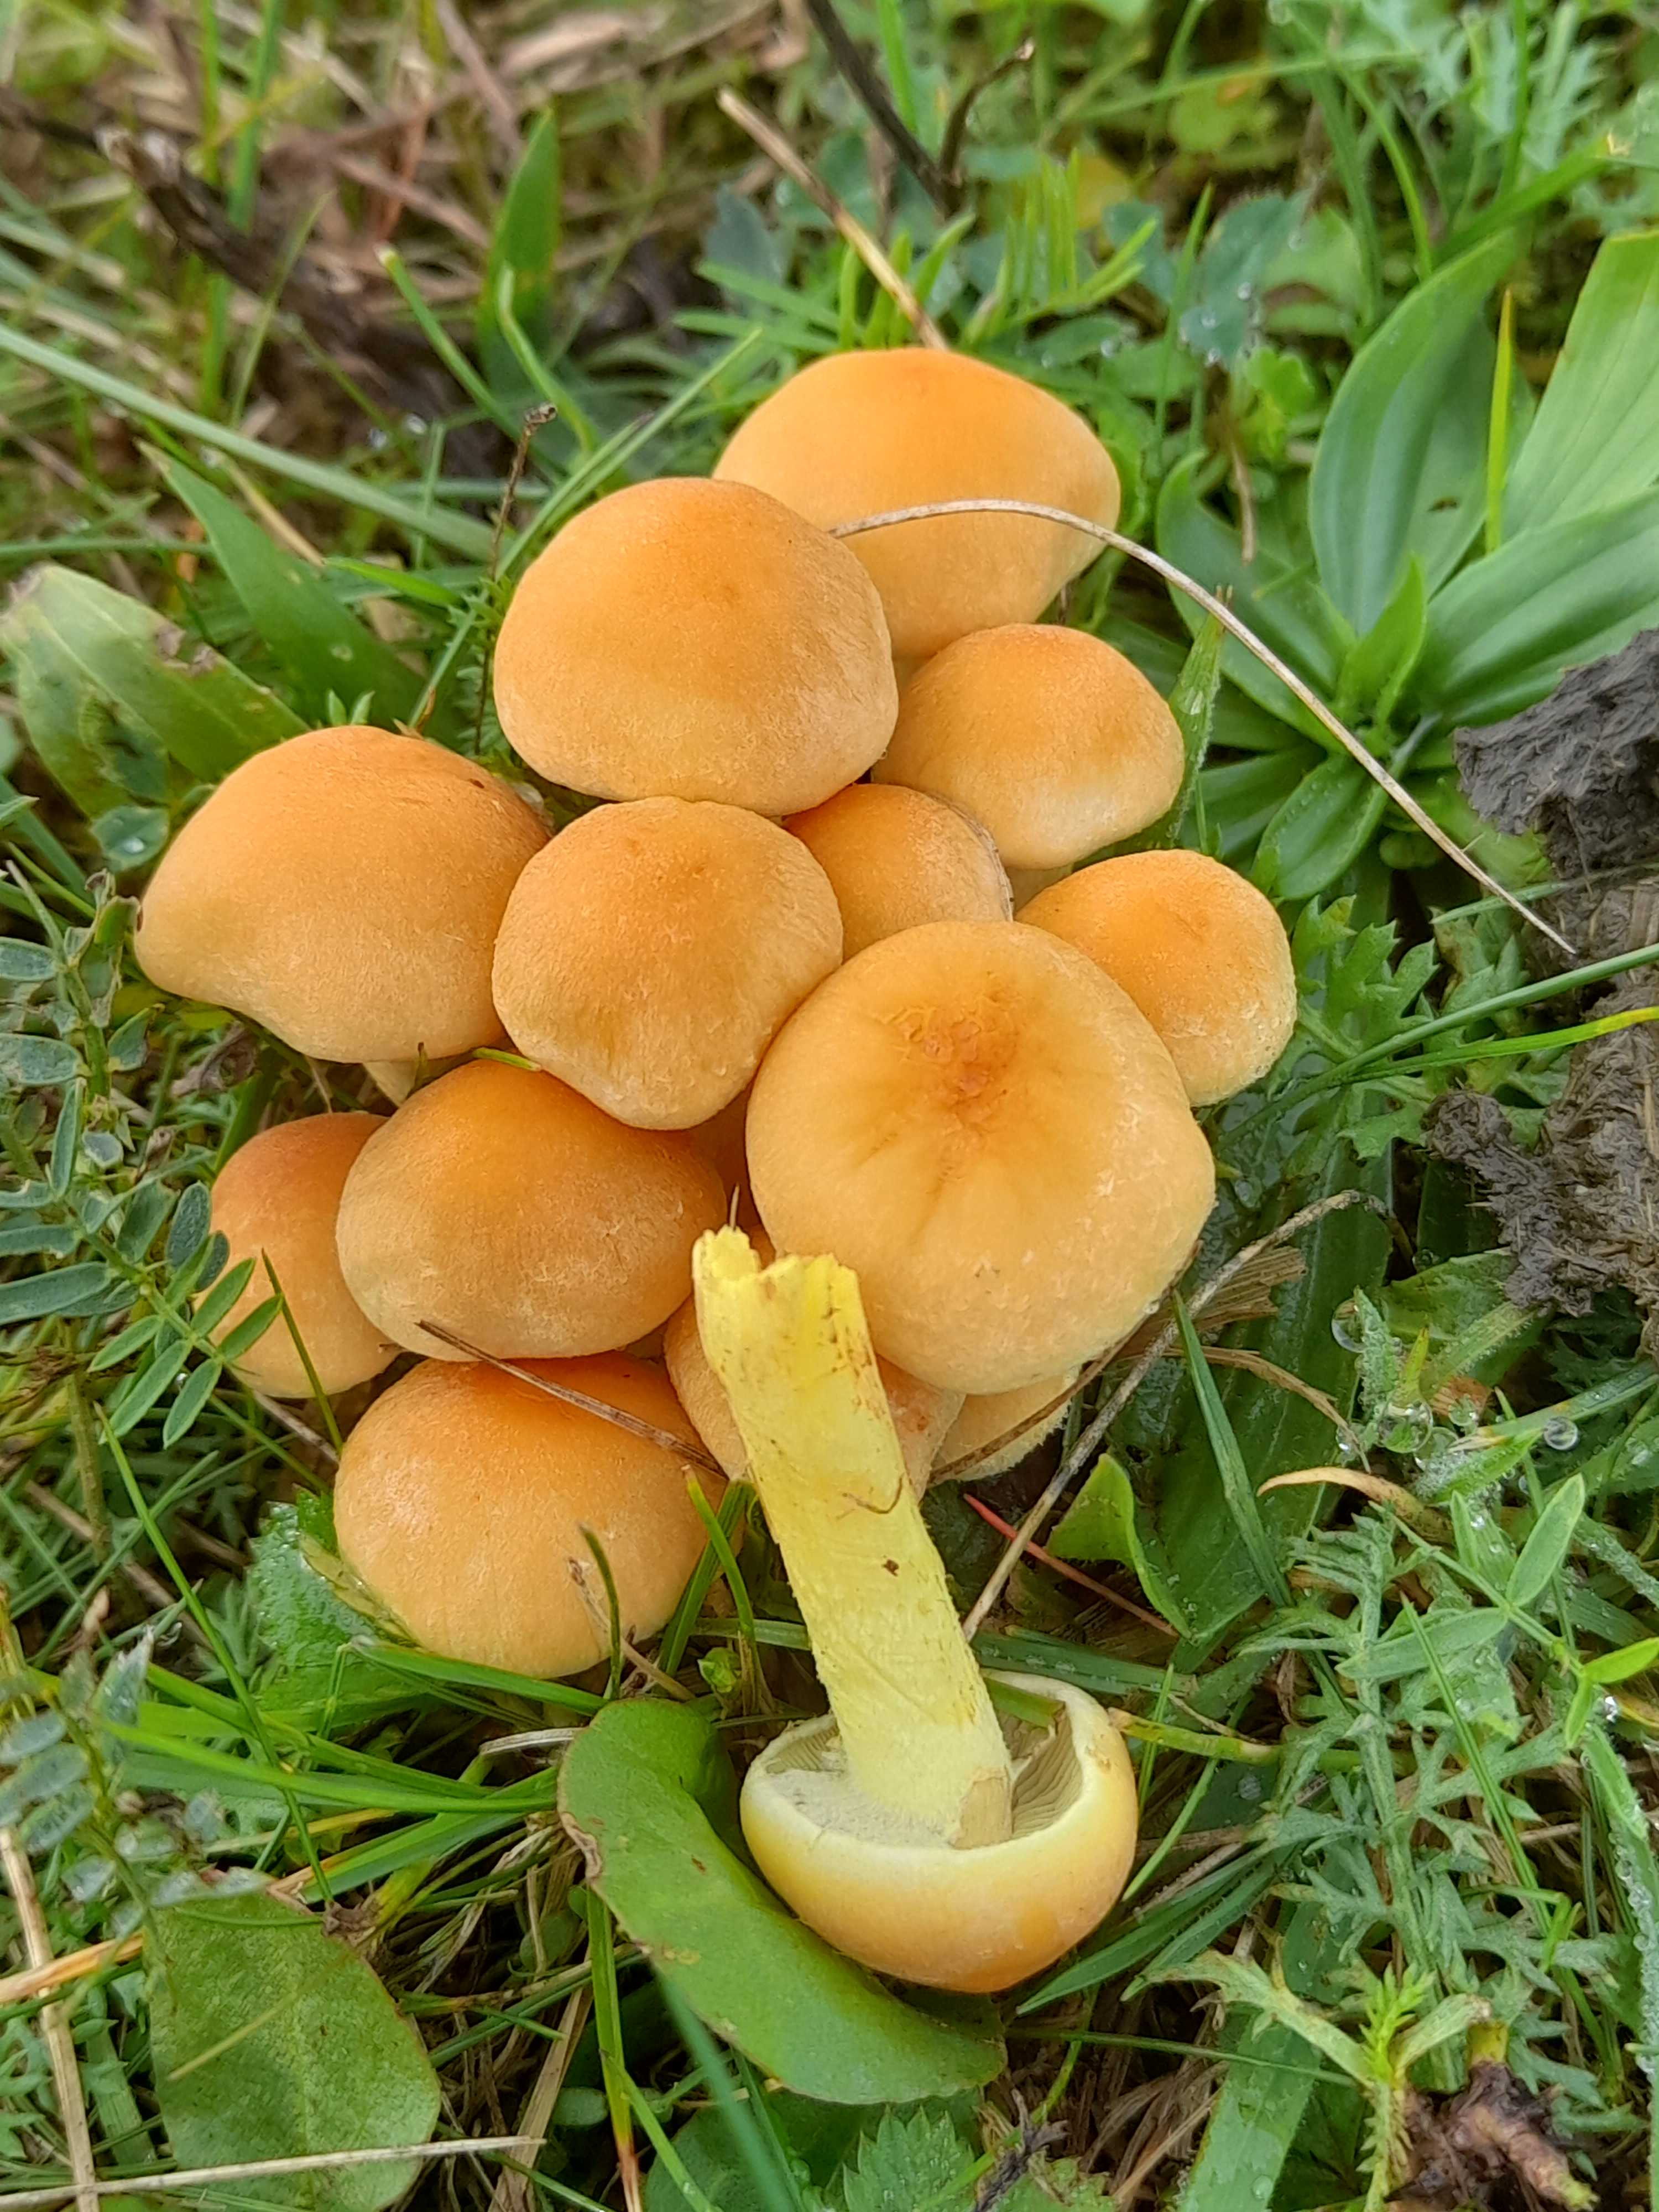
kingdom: Fungi
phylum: Basidiomycota
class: Agaricomycetes
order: Agaricales
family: Strophariaceae
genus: Hypholoma
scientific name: Hypholoma fasciculare
